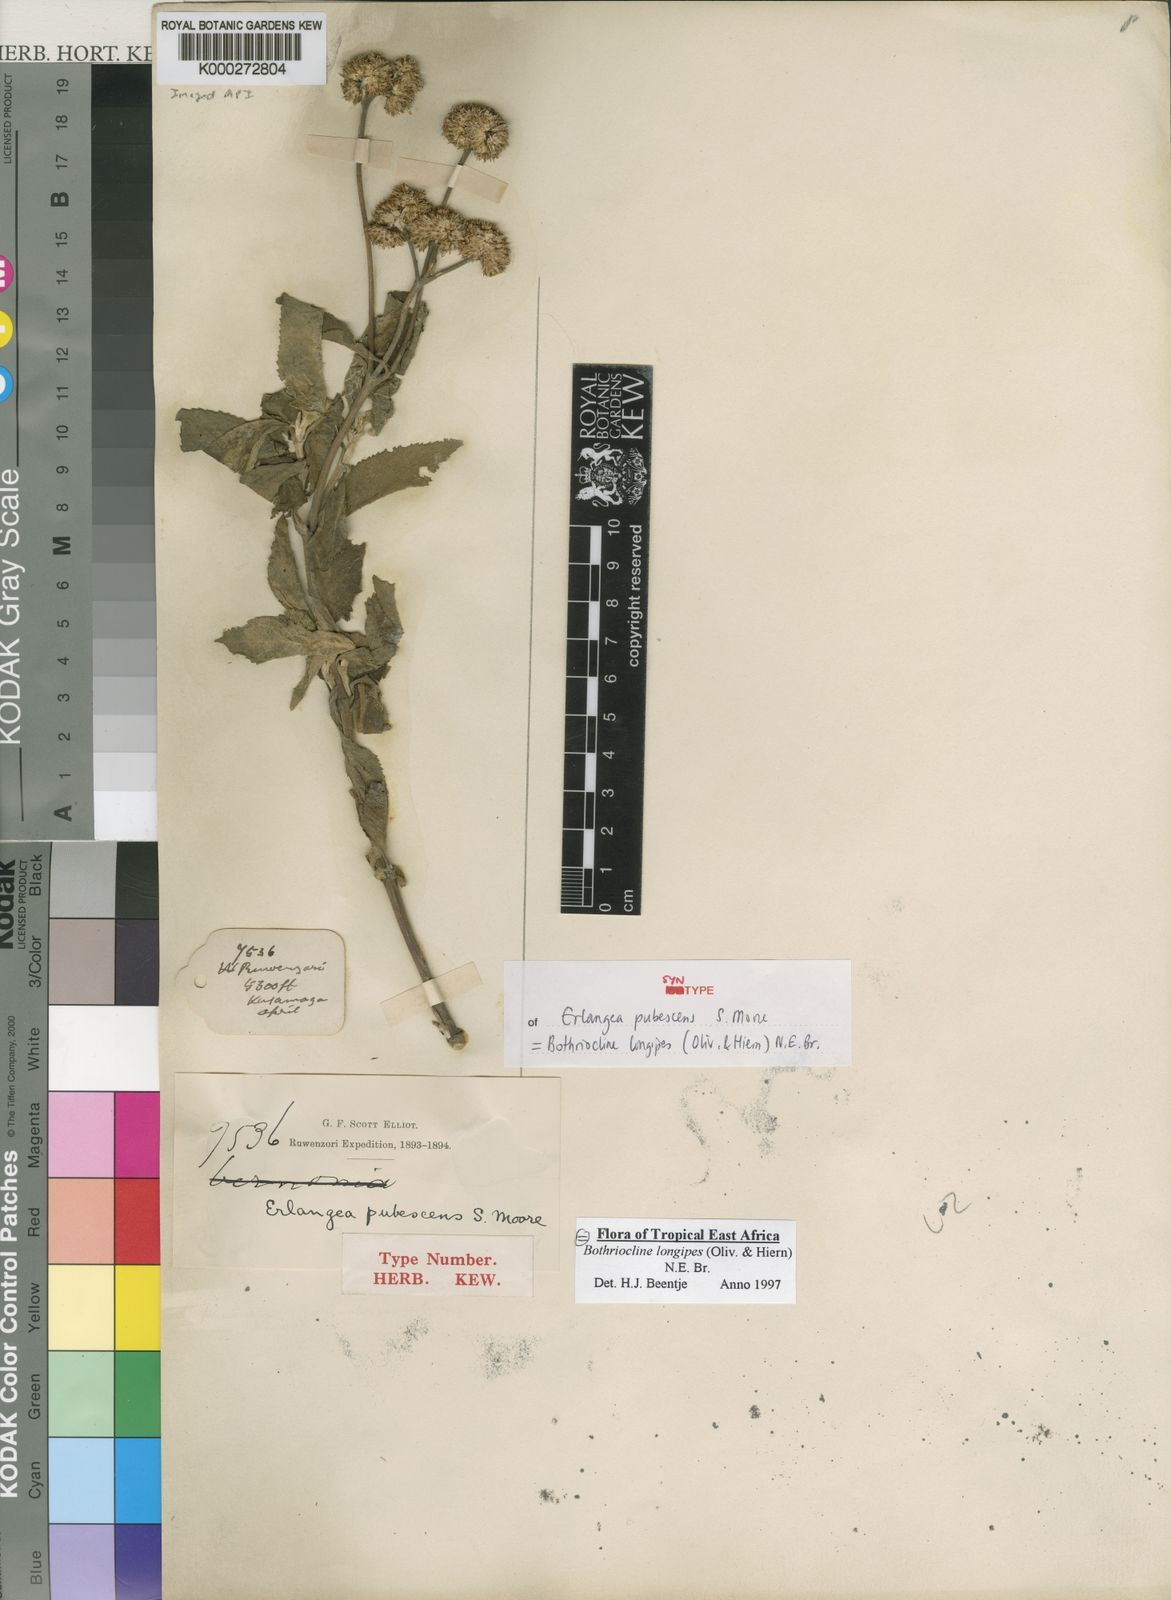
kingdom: Plantae
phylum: Tracheophyta
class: Magnoliopsida
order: Asterales
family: Asteraceae
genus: Bothriocline
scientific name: Bothriocline longipes
